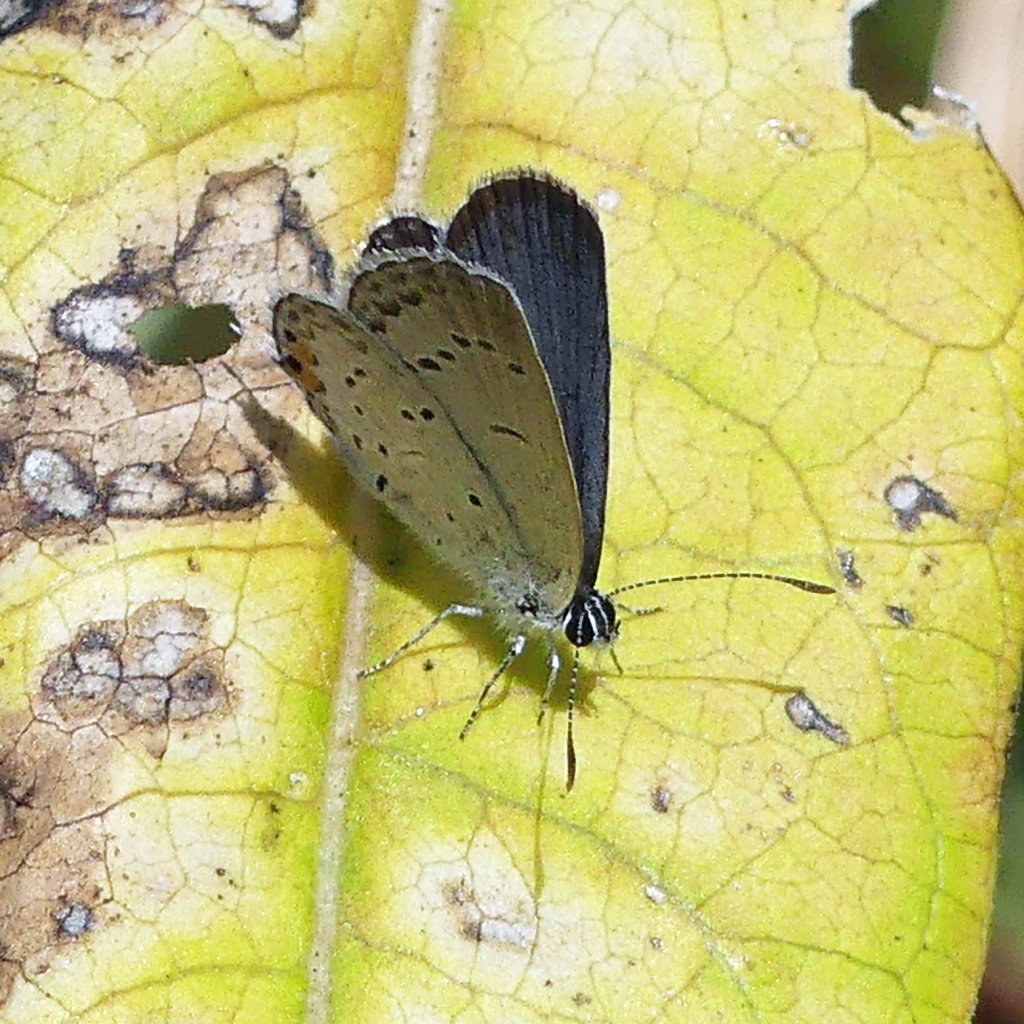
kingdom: Animalia
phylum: Arthropoda
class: Insecta
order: Lepidoptera
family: Lycaenidae
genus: Elkalyce
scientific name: Elkalyce comyntas
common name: Eastern Tailed-Blue
